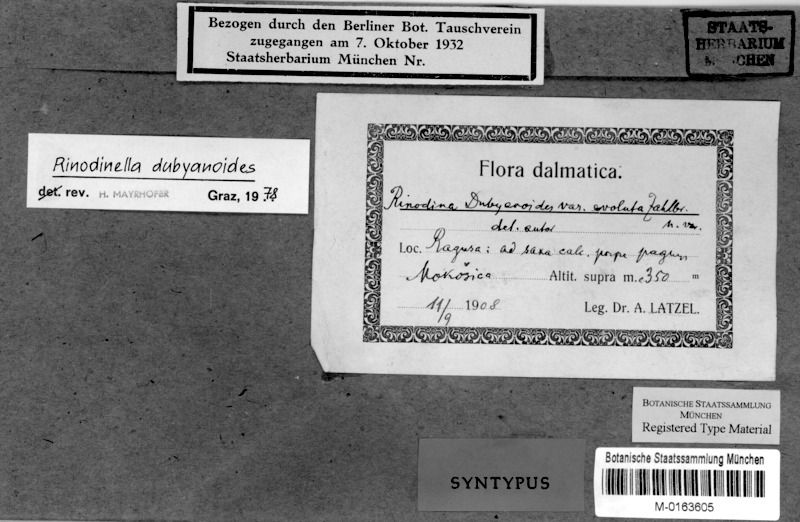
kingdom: Fungi
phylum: Ascomycota
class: Lecanoromycetes
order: Caliciales
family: Physciaceae
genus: Rinodinella
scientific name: Rinodinella dubyanoides
